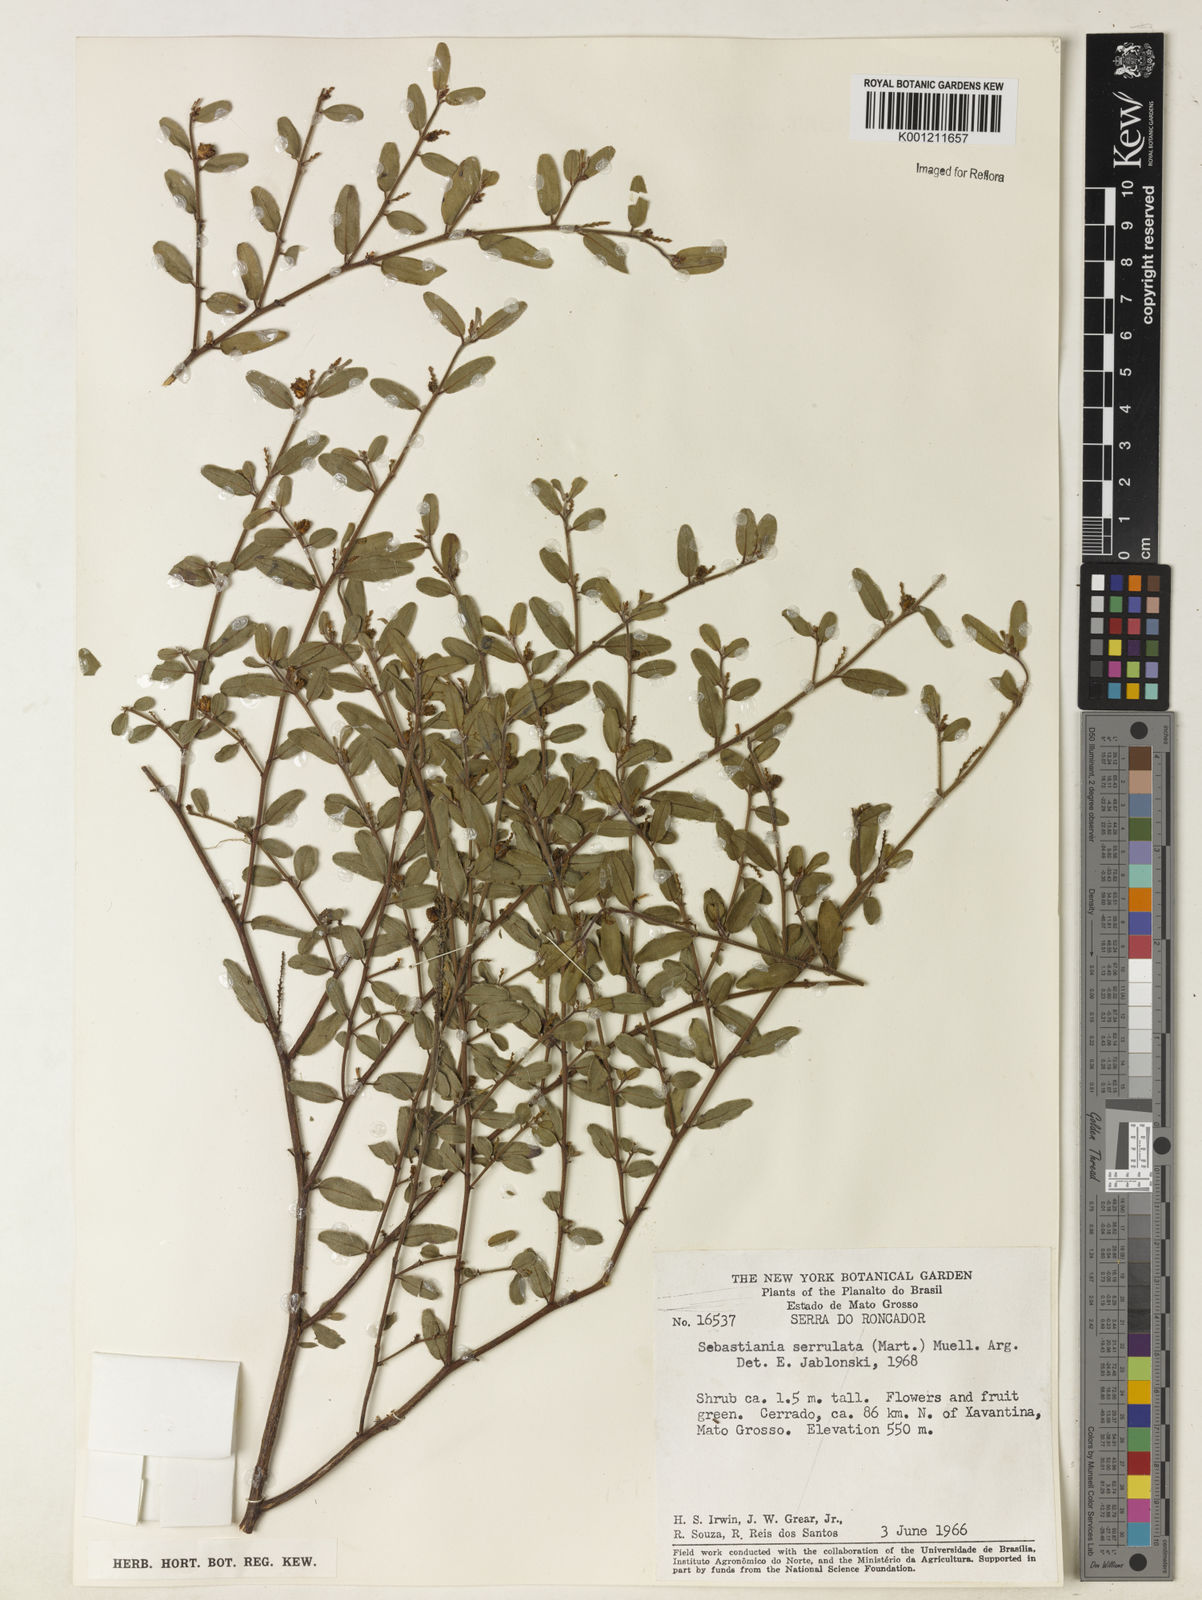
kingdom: Plantae
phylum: Tracheophyta
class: Magnoliopsida
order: Malpighiales
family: Euphorbiaceae
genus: Microstachys
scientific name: Microstachys
